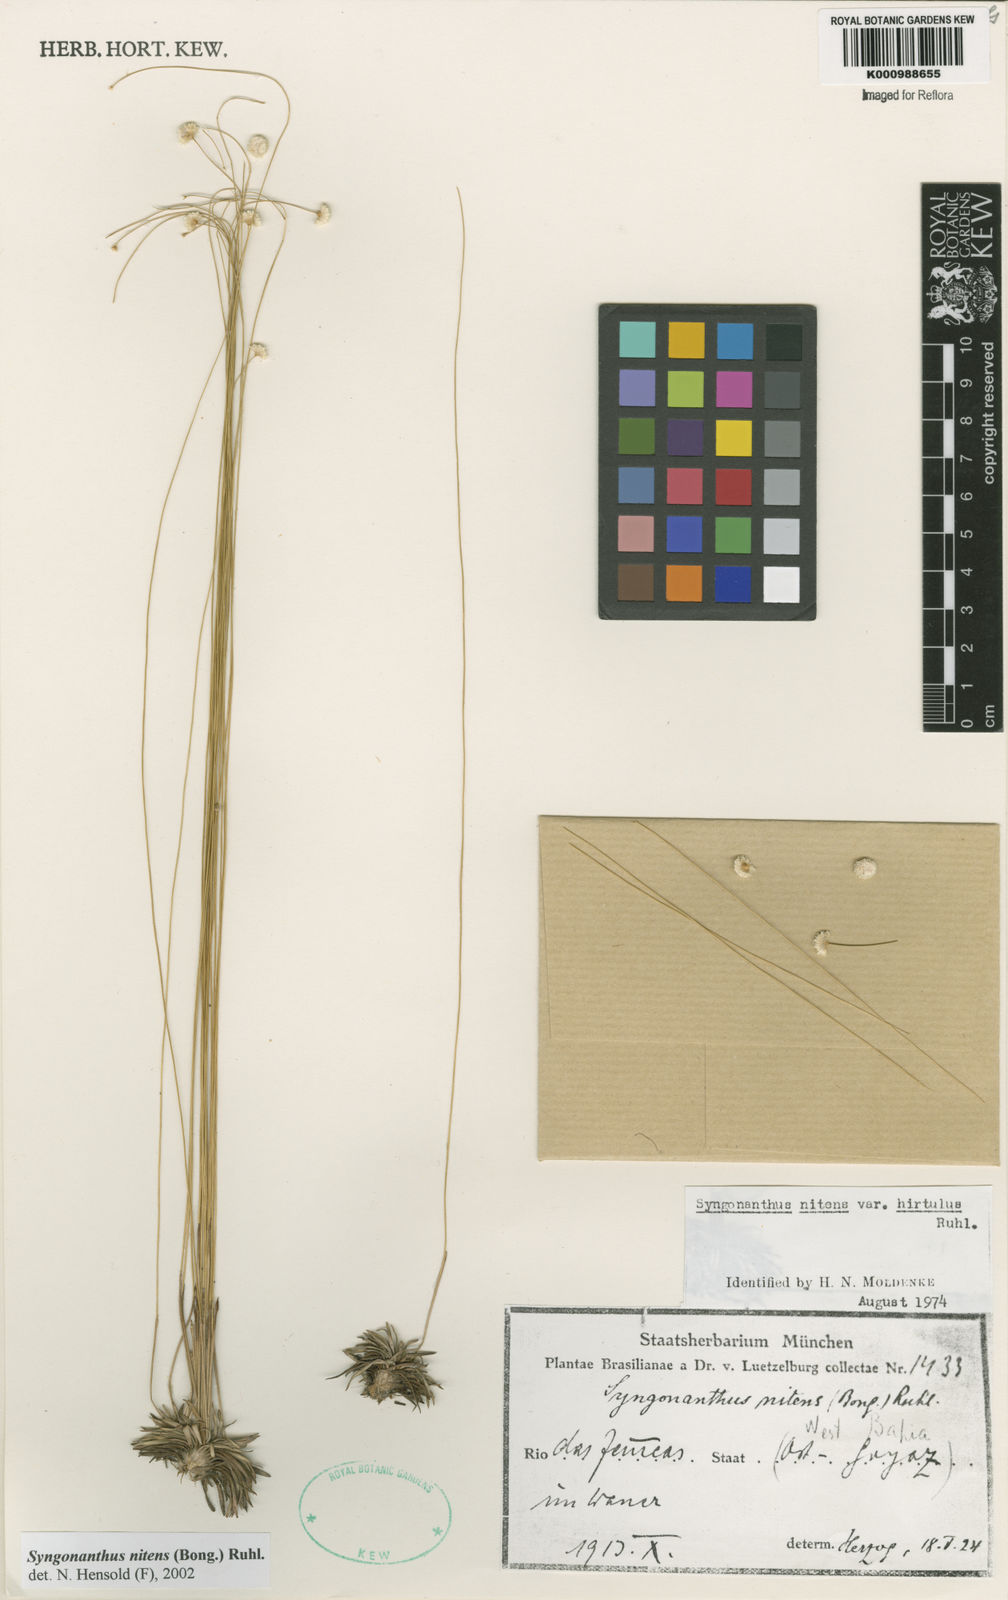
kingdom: Plantae
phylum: Tracheophyta
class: Liliopsida
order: Poales
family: Eriocaulaceae
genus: Syngonanthus
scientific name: Syngonanthus nitens
